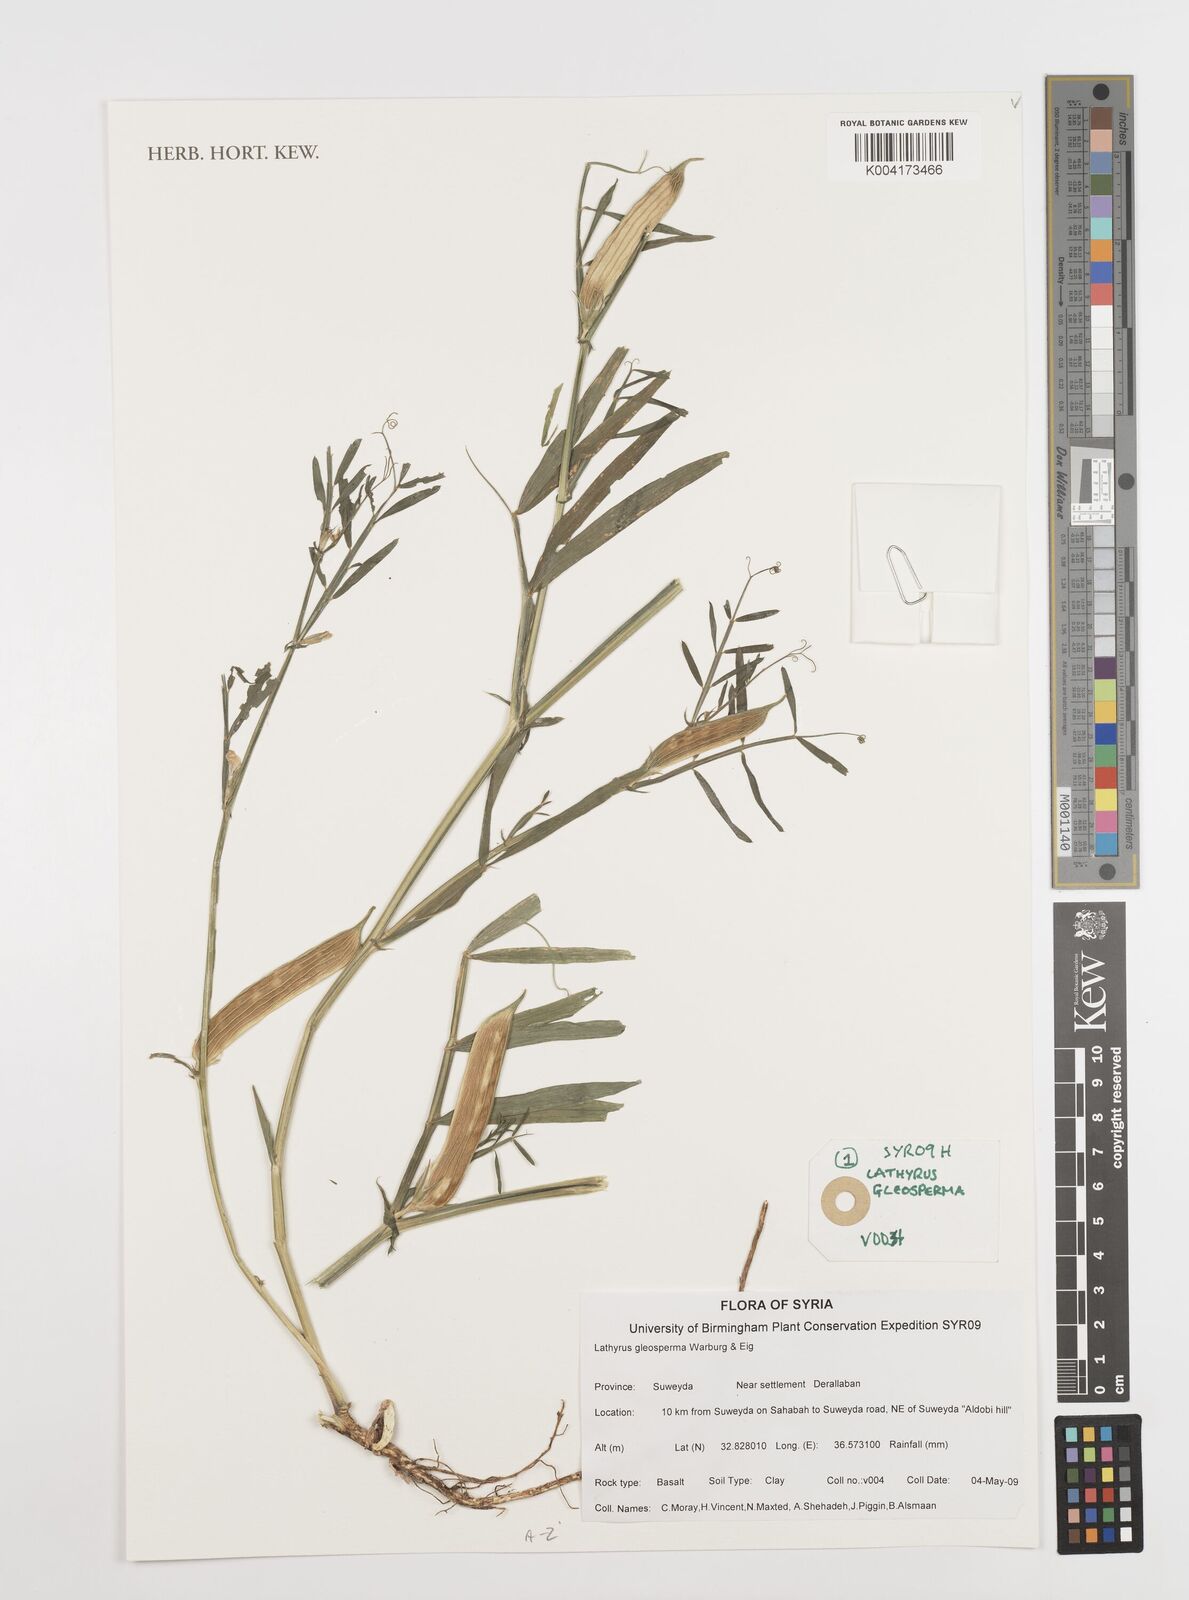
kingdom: Plantae
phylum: Tracheophyta
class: Magnoliopsida
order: Fabales
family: Fabaceae
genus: Lathyrus
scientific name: Lathyrus gloeosperma
